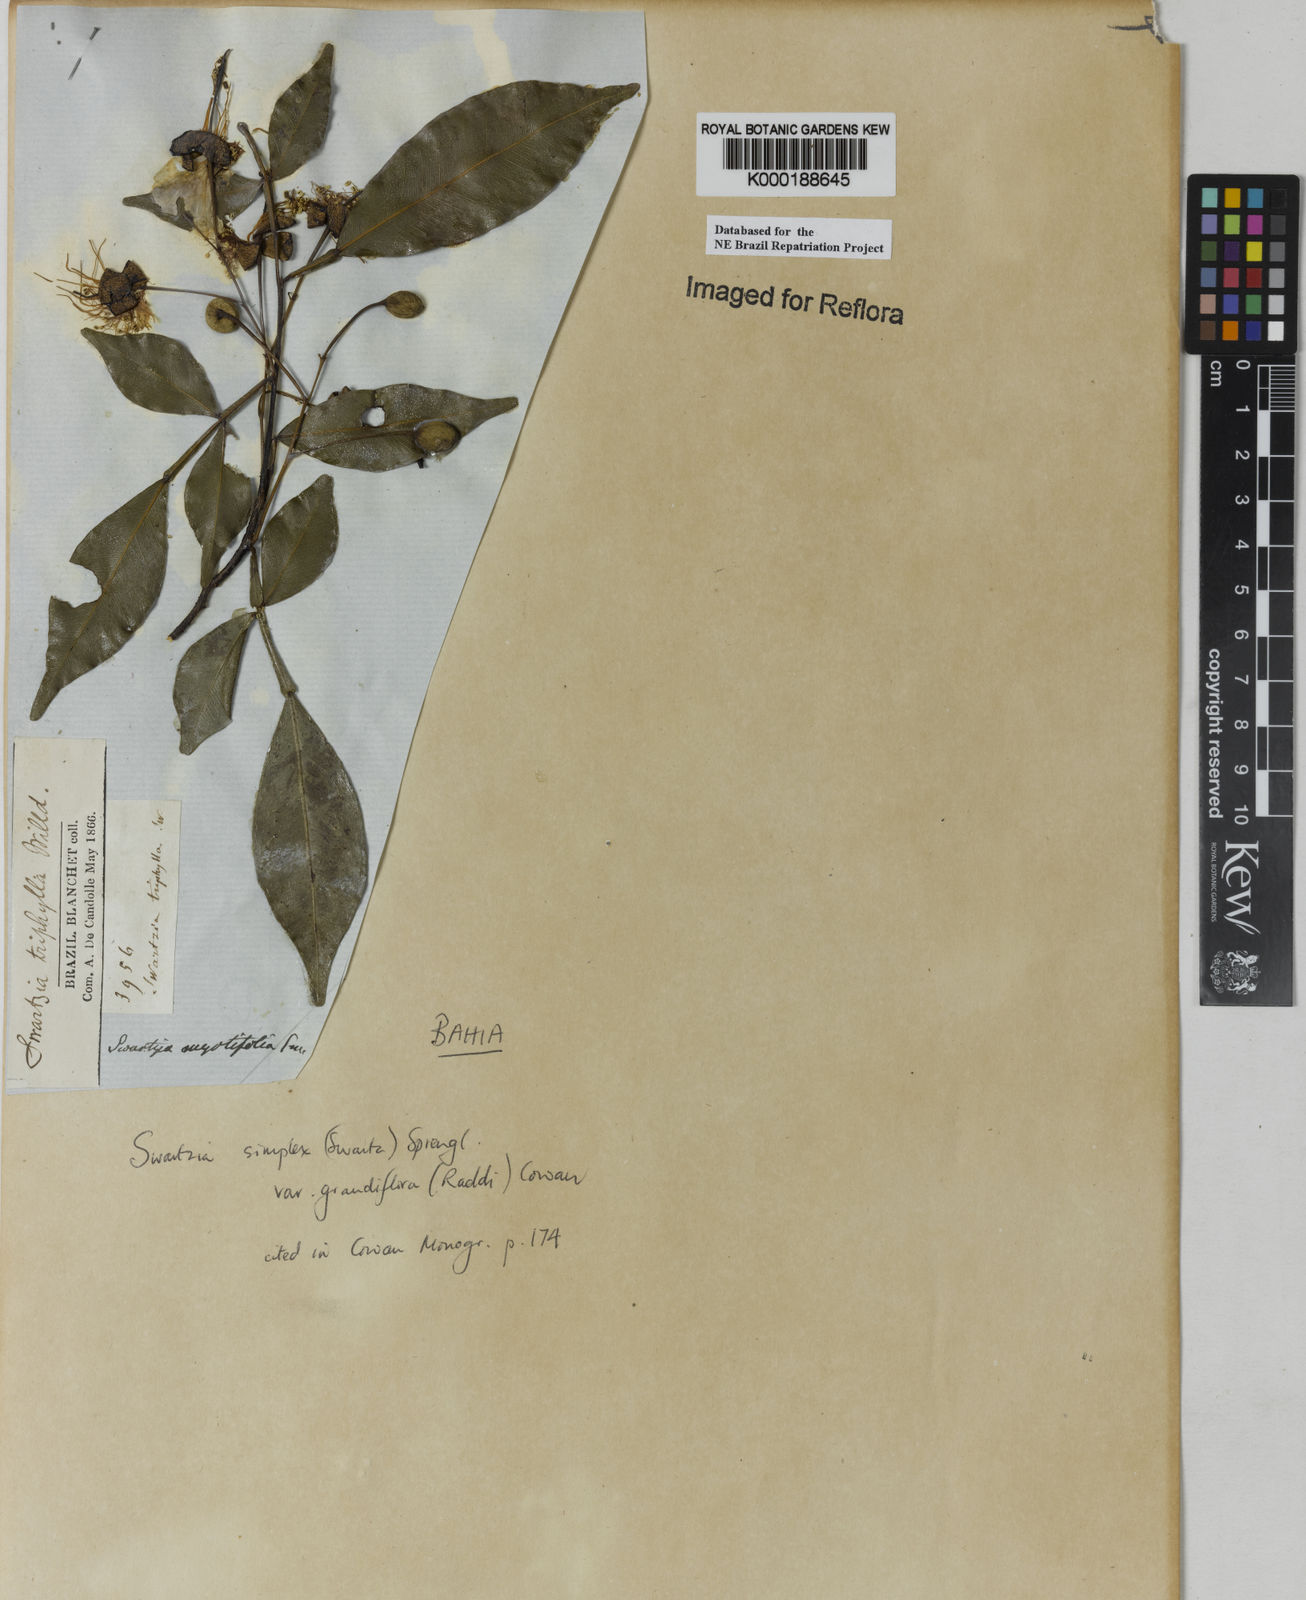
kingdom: Plantae
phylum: Tracheophyta
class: Magnoliopsida
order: Fabales
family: Fabaceae
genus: Swartzia
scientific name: Swartzia simplex
